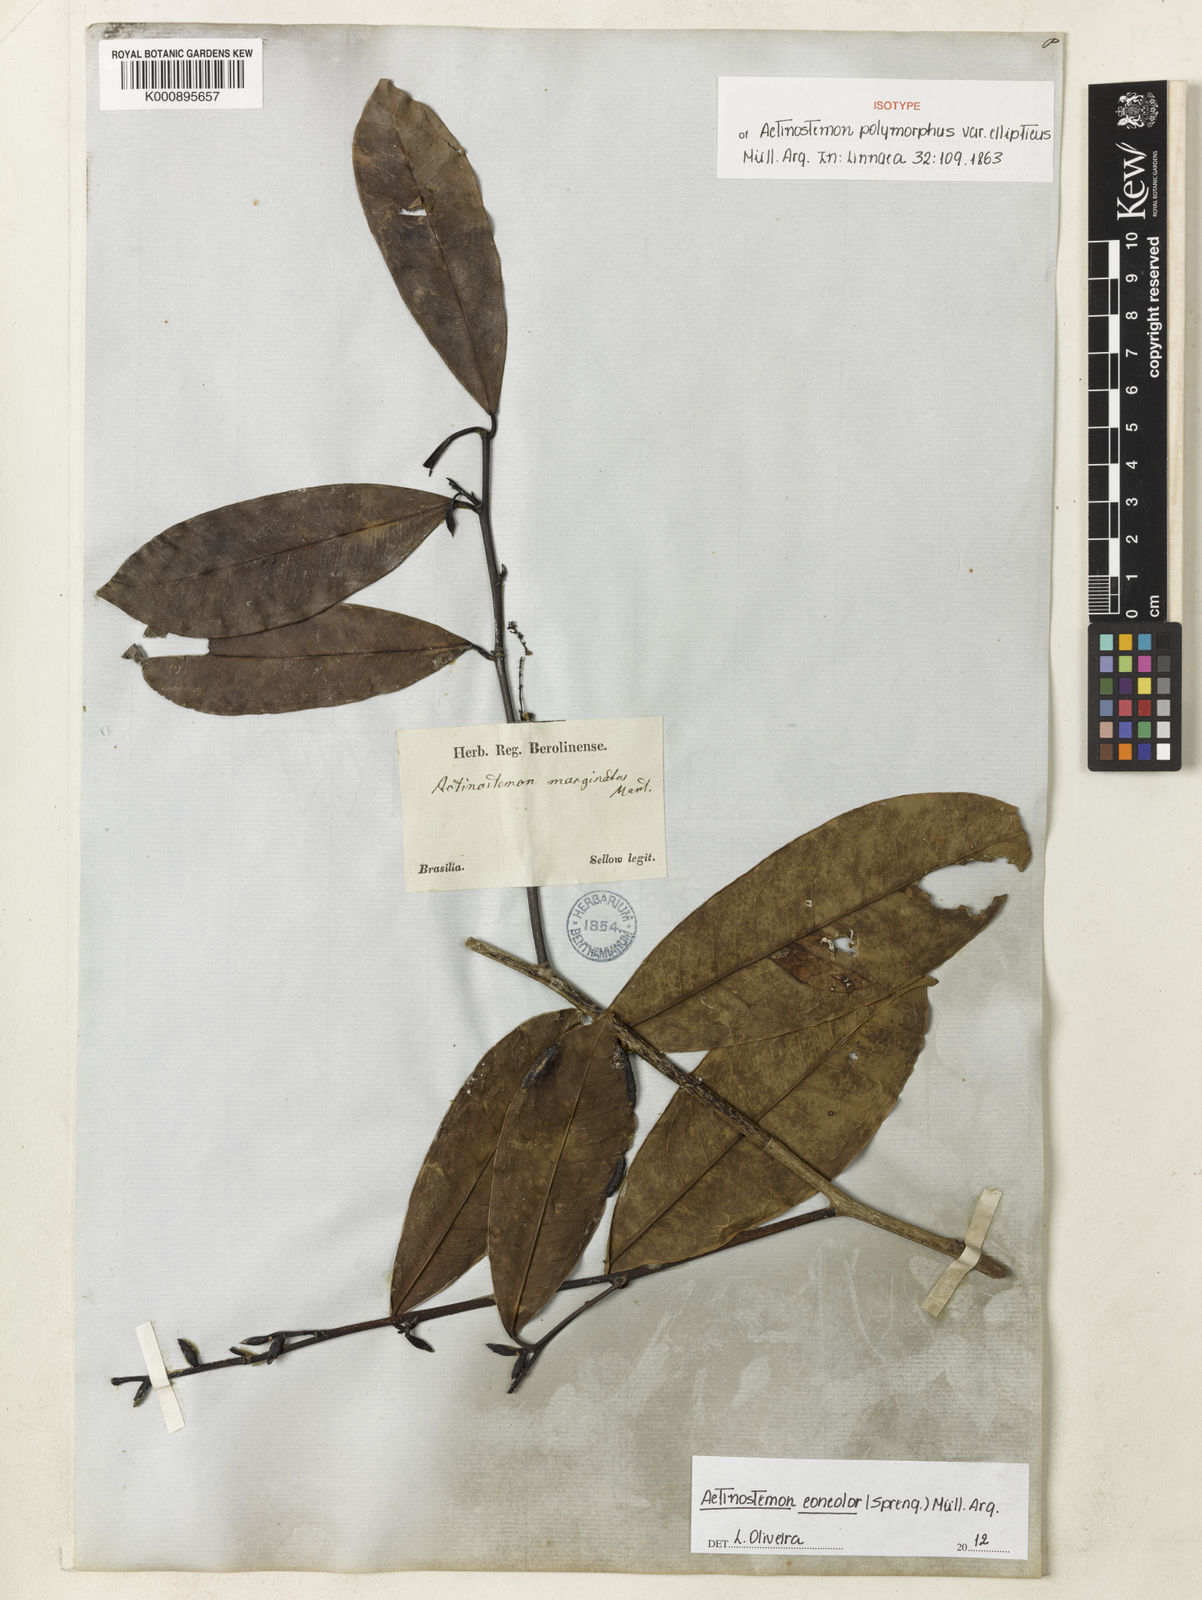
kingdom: Plantae
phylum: Tracheophyta
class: Magnoliopsida
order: Malpighiales
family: Euphorbiaceae
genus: Actinostemon
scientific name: Actinostemon
